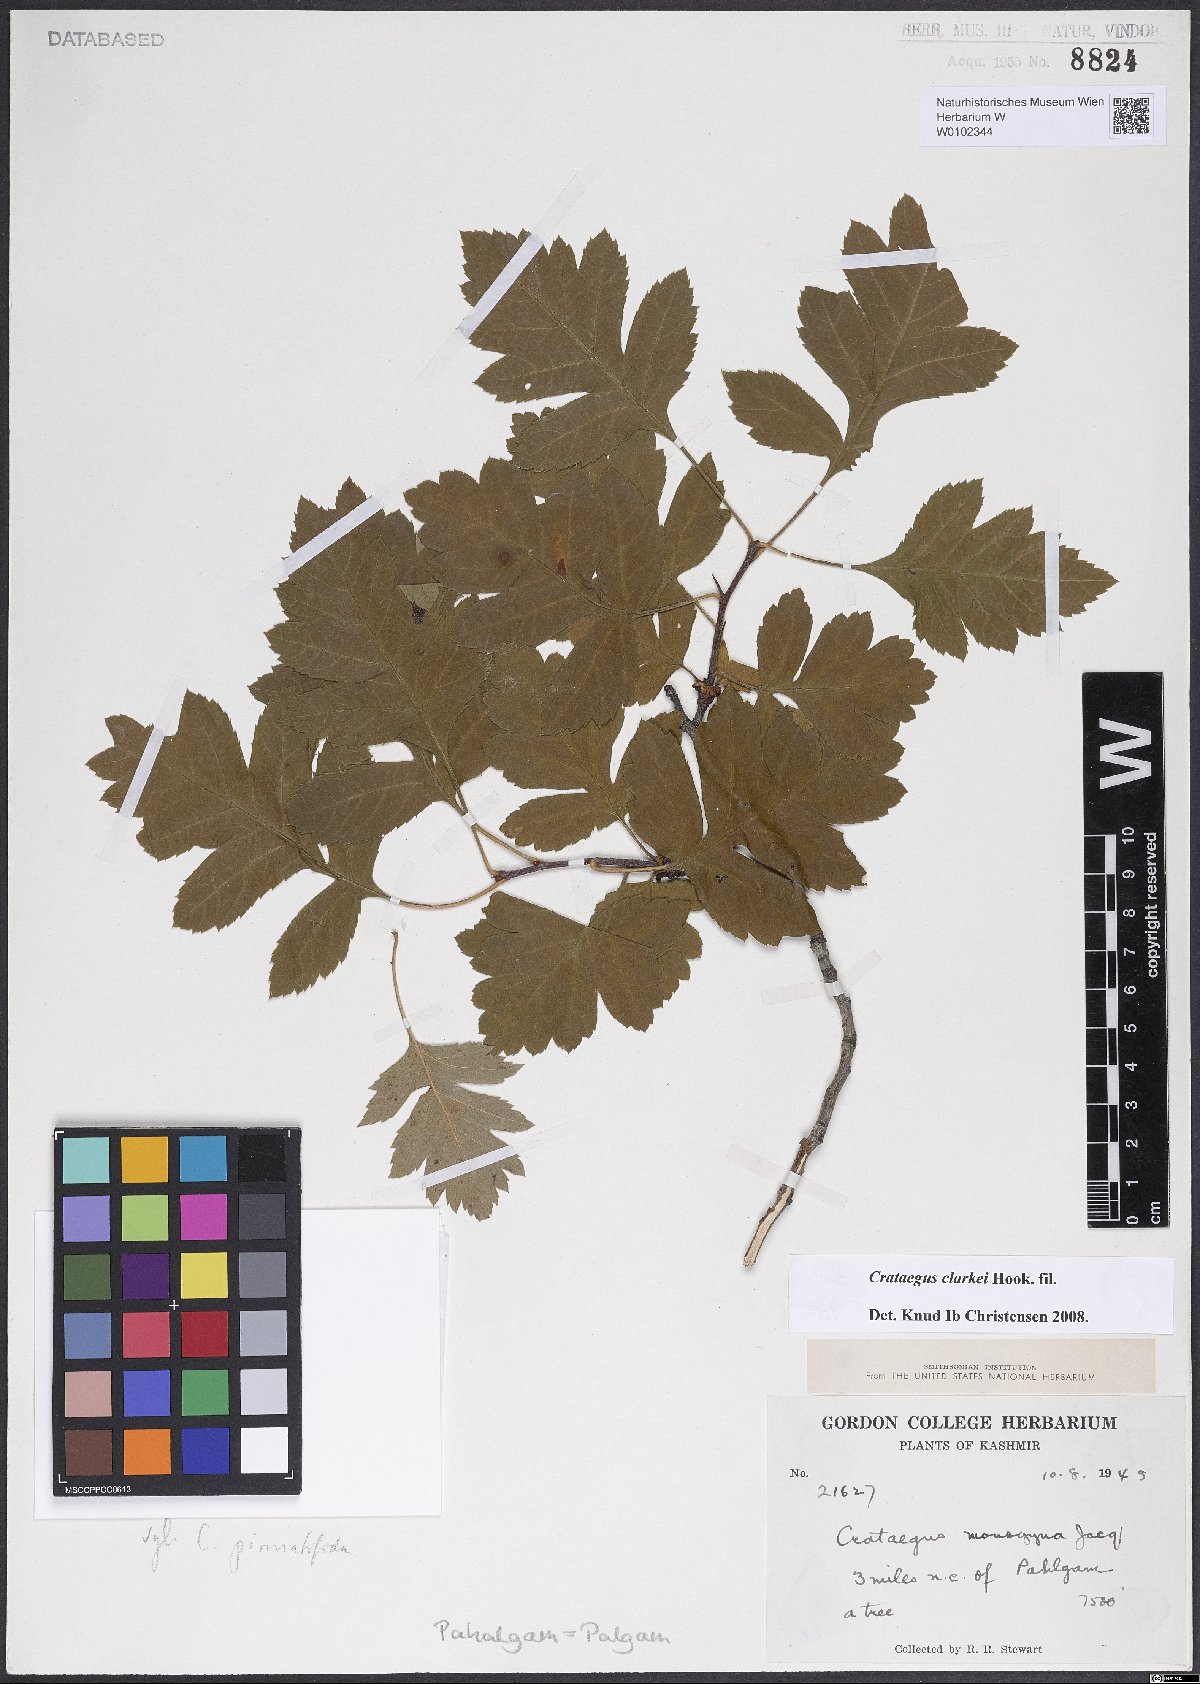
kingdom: Plantae
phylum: Tracheophyta
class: Magnoliopsida
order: Rosales
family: Rosaceae
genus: Crataegus
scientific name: Crataegus clarkei
